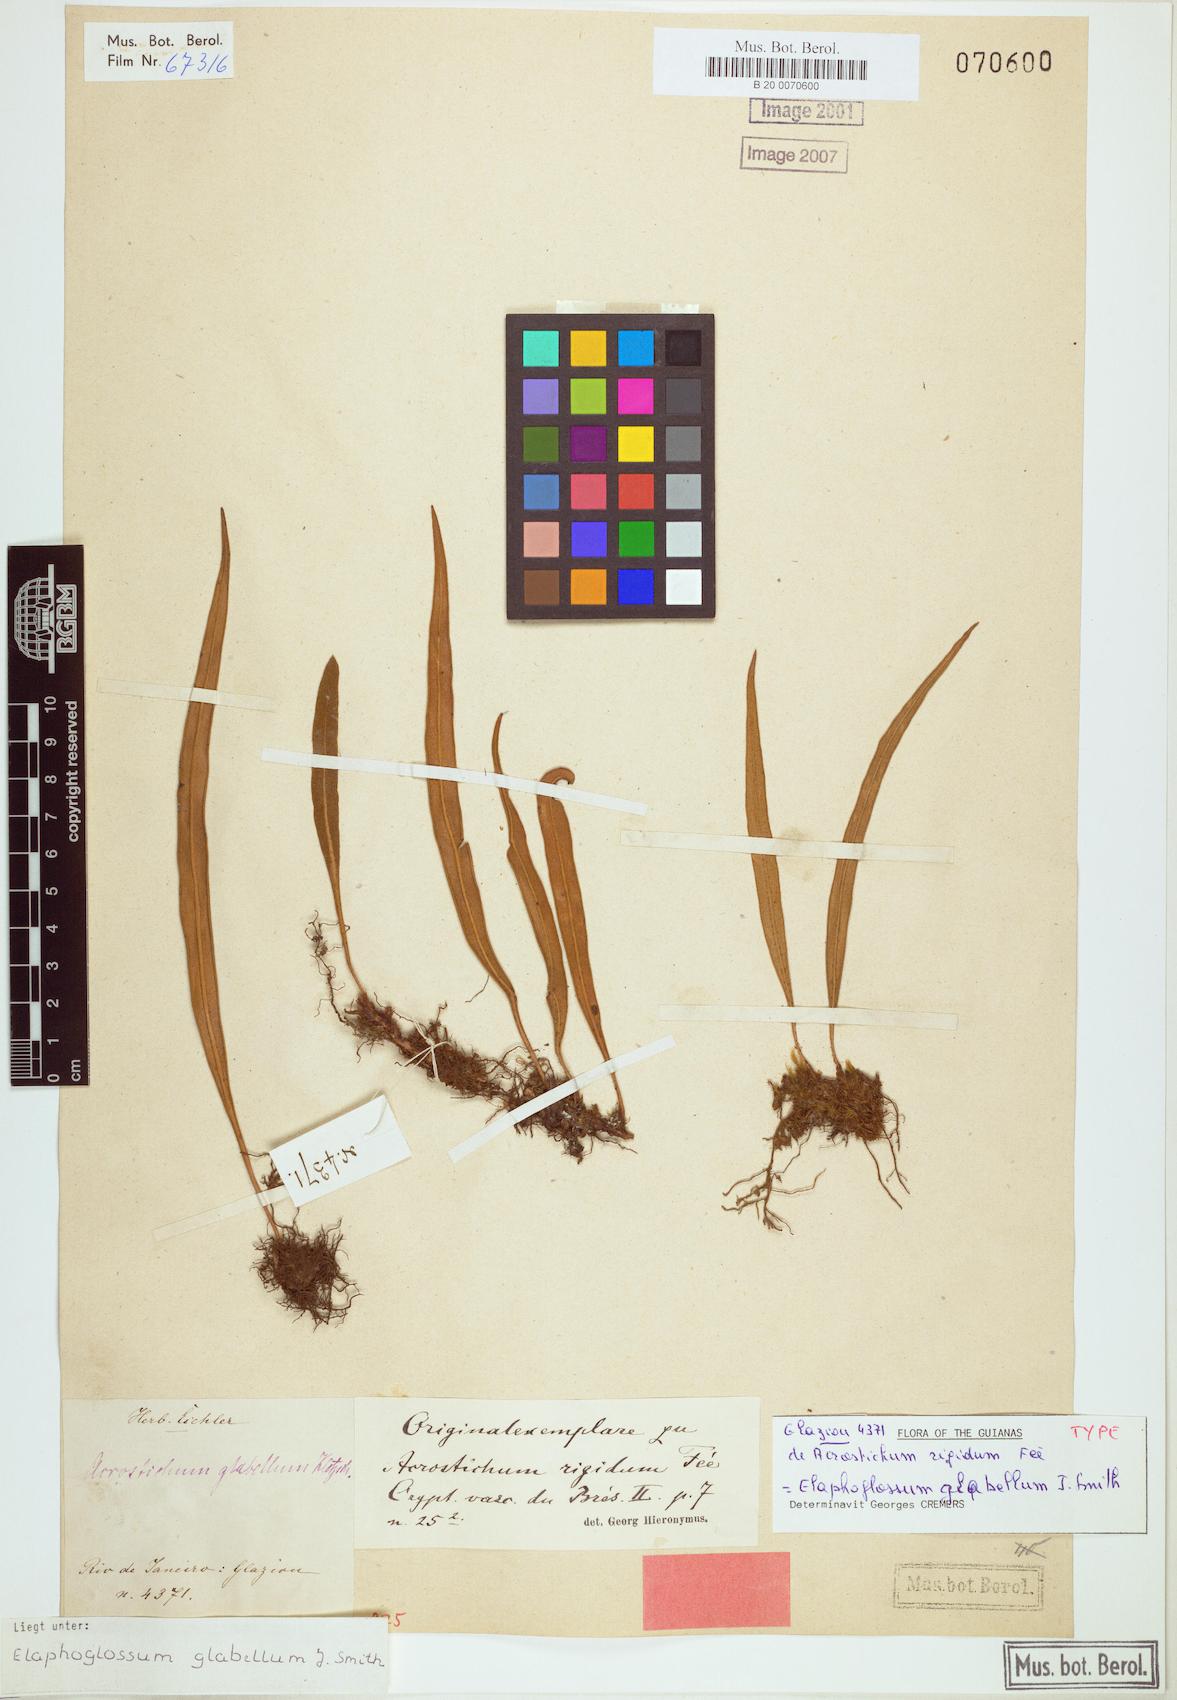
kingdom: Plantae
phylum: Tracheophyta
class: Polypodiopsida
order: Polypodiales
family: Dryopteridaceae
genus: Elaphoglossum
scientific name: Elaphoglossum glabellum
